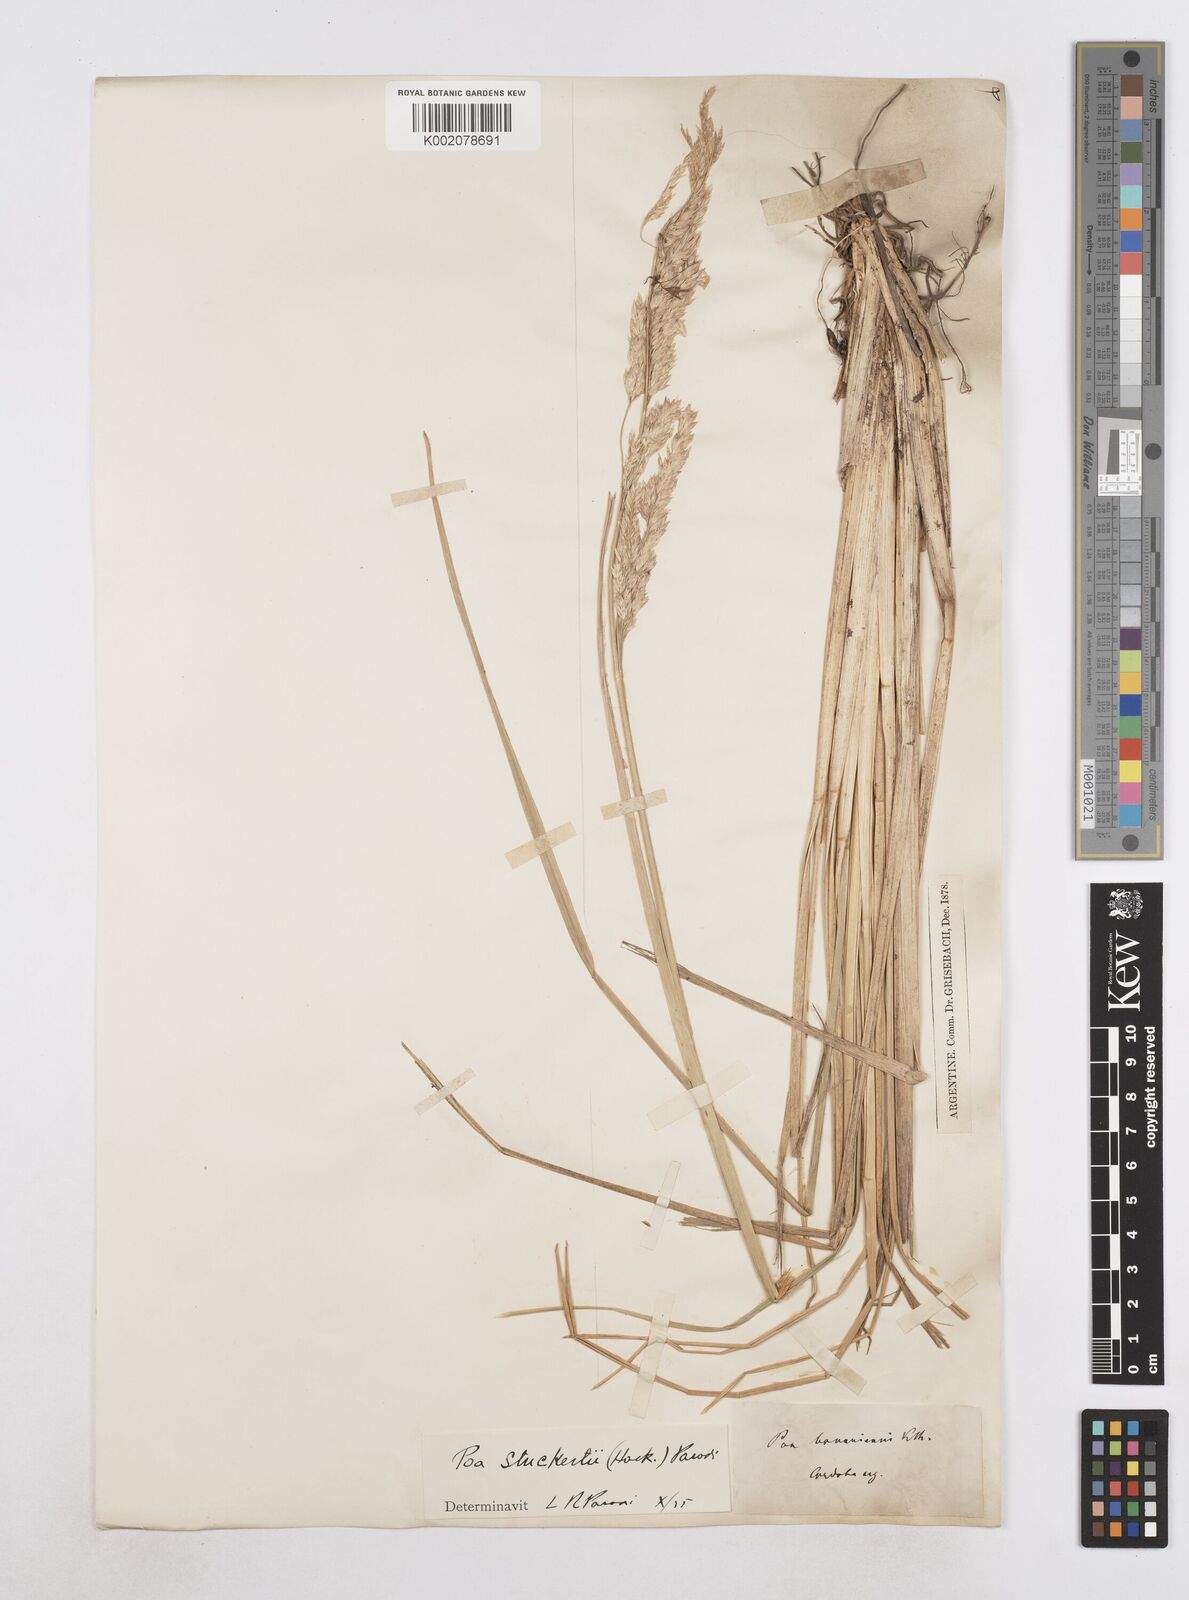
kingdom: Plantae
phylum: Tracheophyta
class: Liliopsida
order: Poales
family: Poaceae
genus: Poa
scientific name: Poa stuckertii
